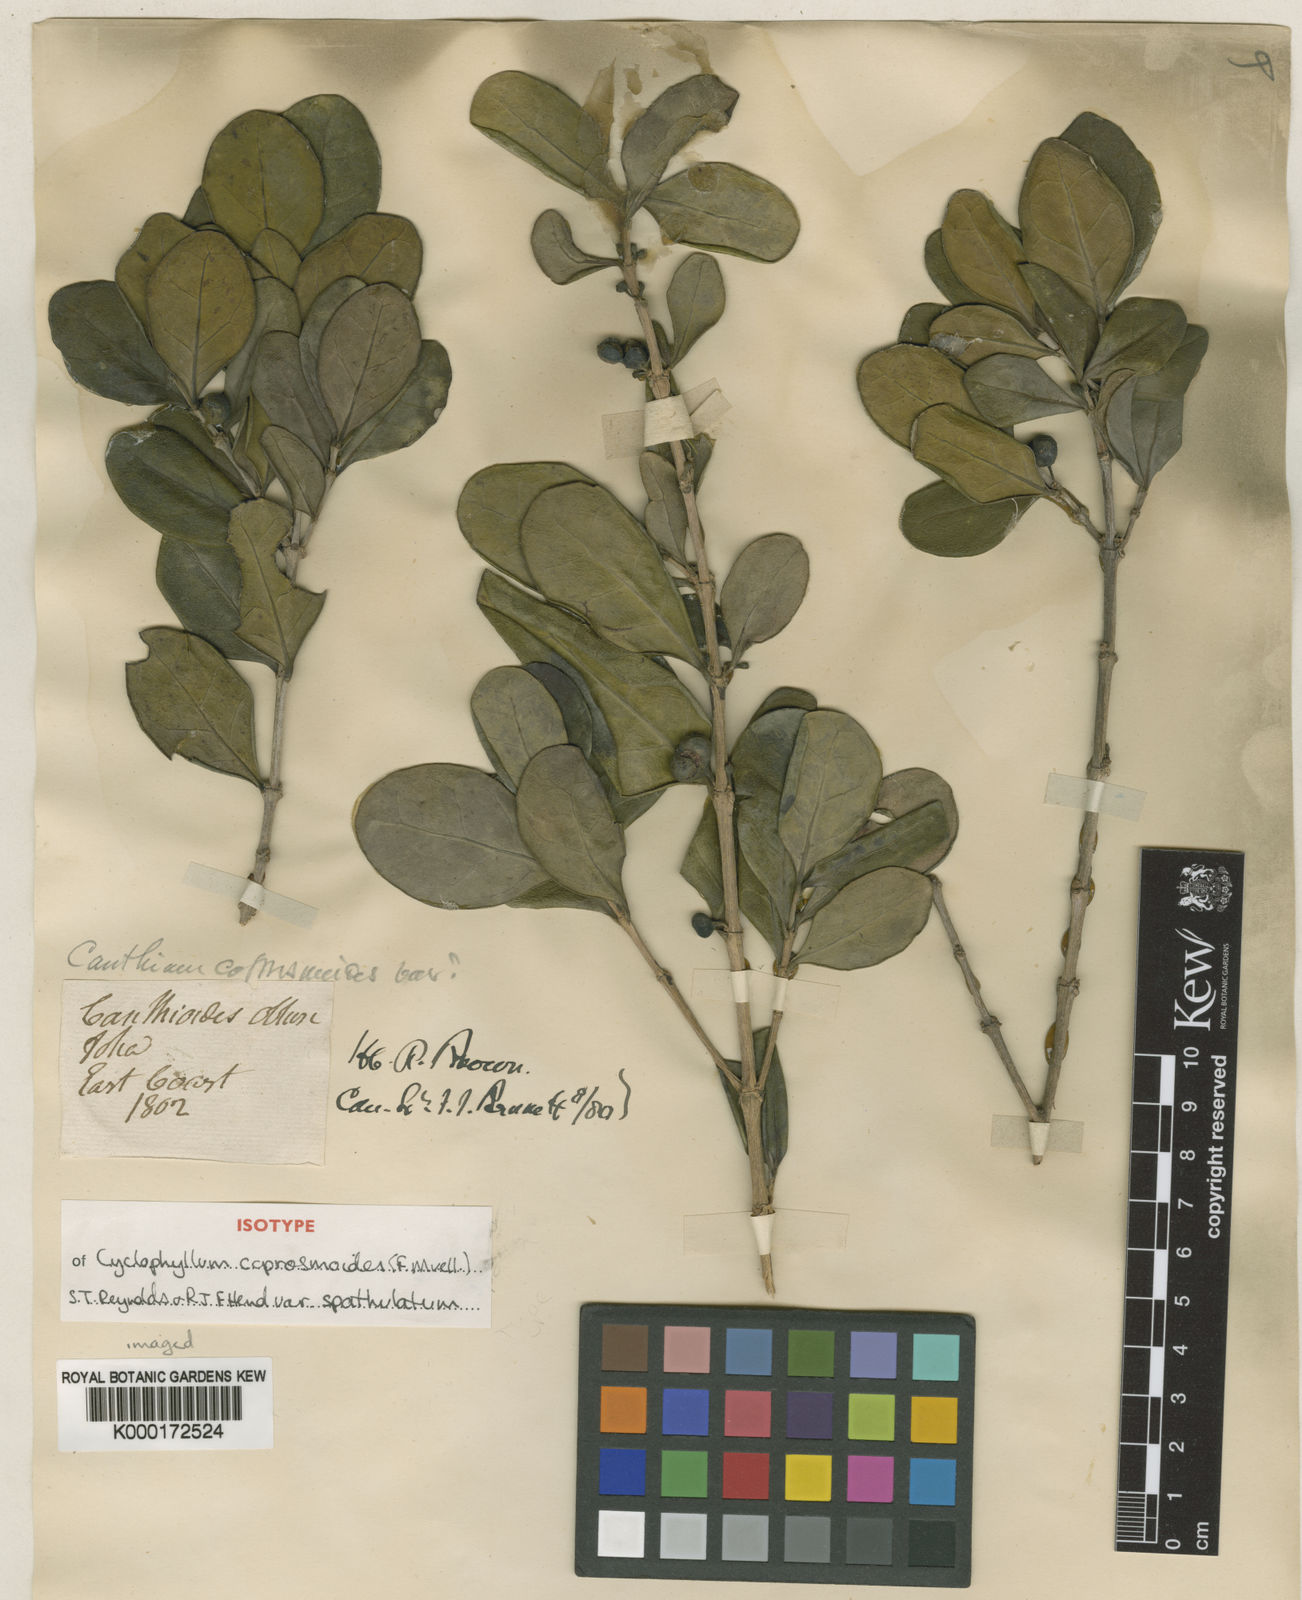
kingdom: Plantae
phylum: Tracheophyta
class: Magnoliopsida
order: Gentianales
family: Rubiaceae
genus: Cyclophyllum
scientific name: Cyclophyllum coprosmoides
